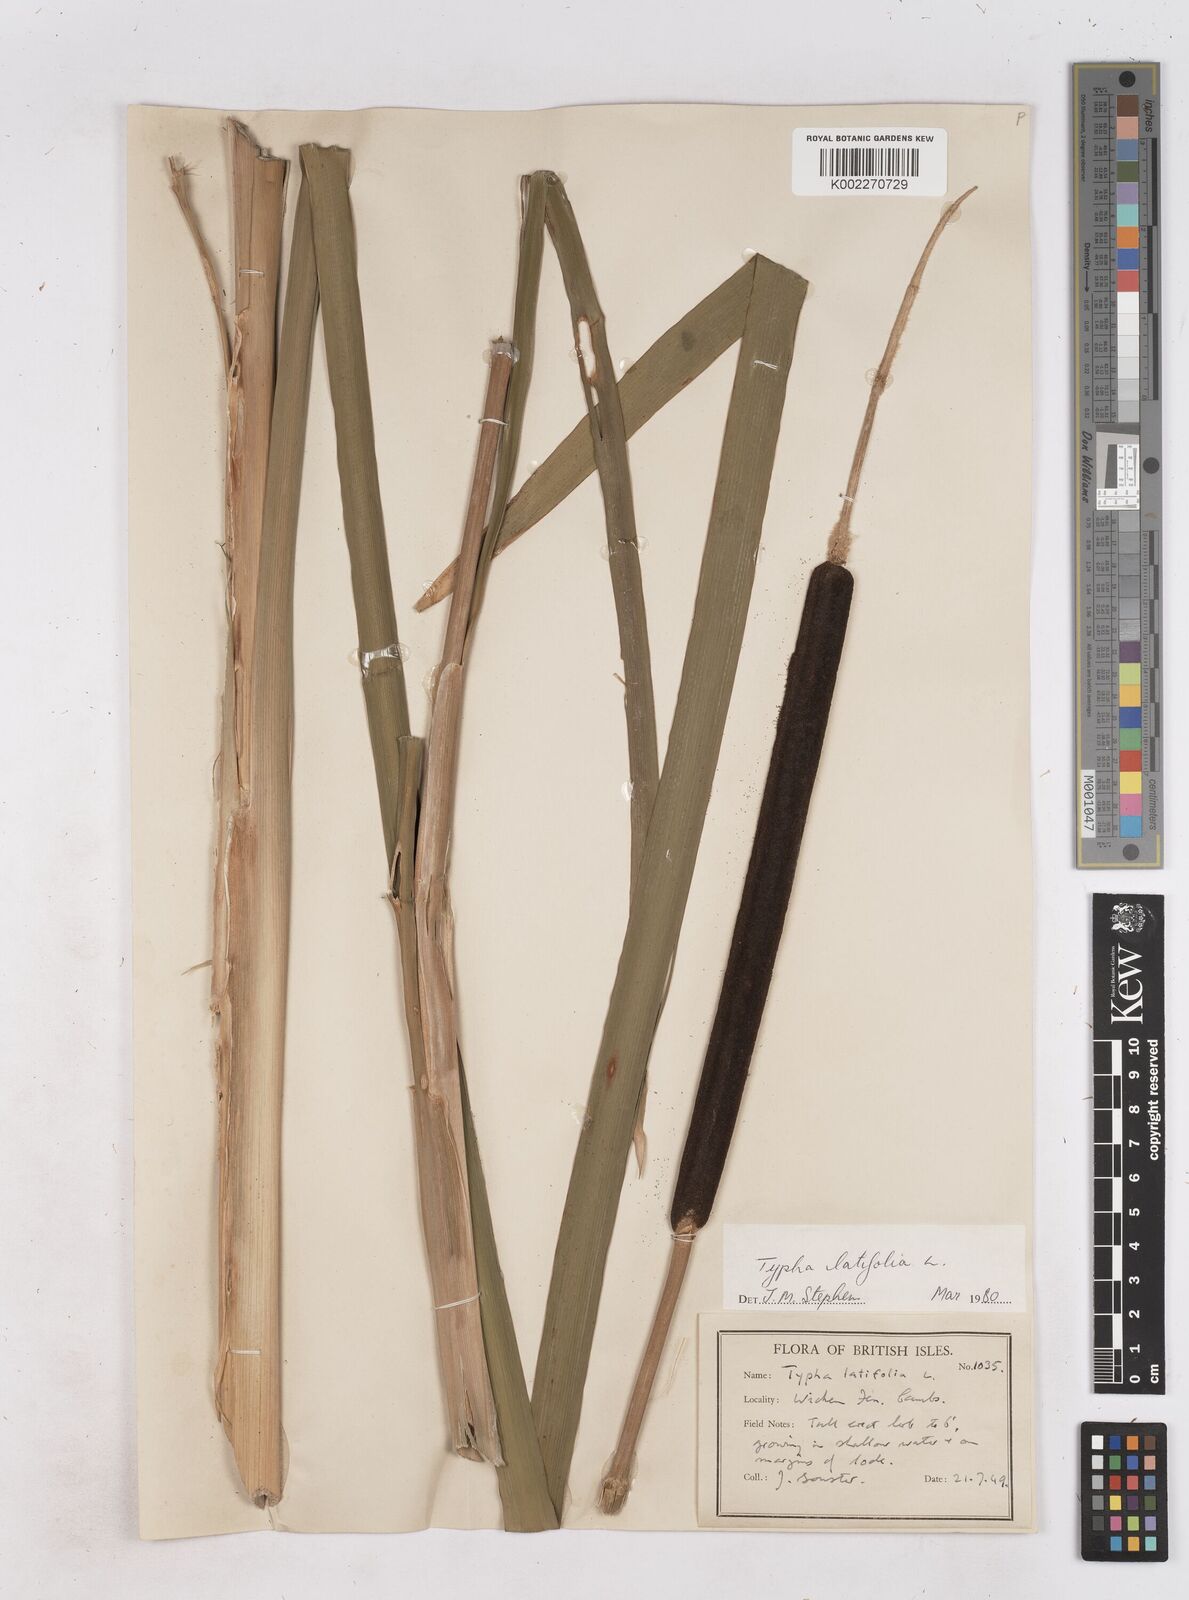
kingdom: Plantae
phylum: Tracheophyta
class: Liliopsida
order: Poales
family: Typhaceae
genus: Typha
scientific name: Typha latifolia
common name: Broadleaf cattail
